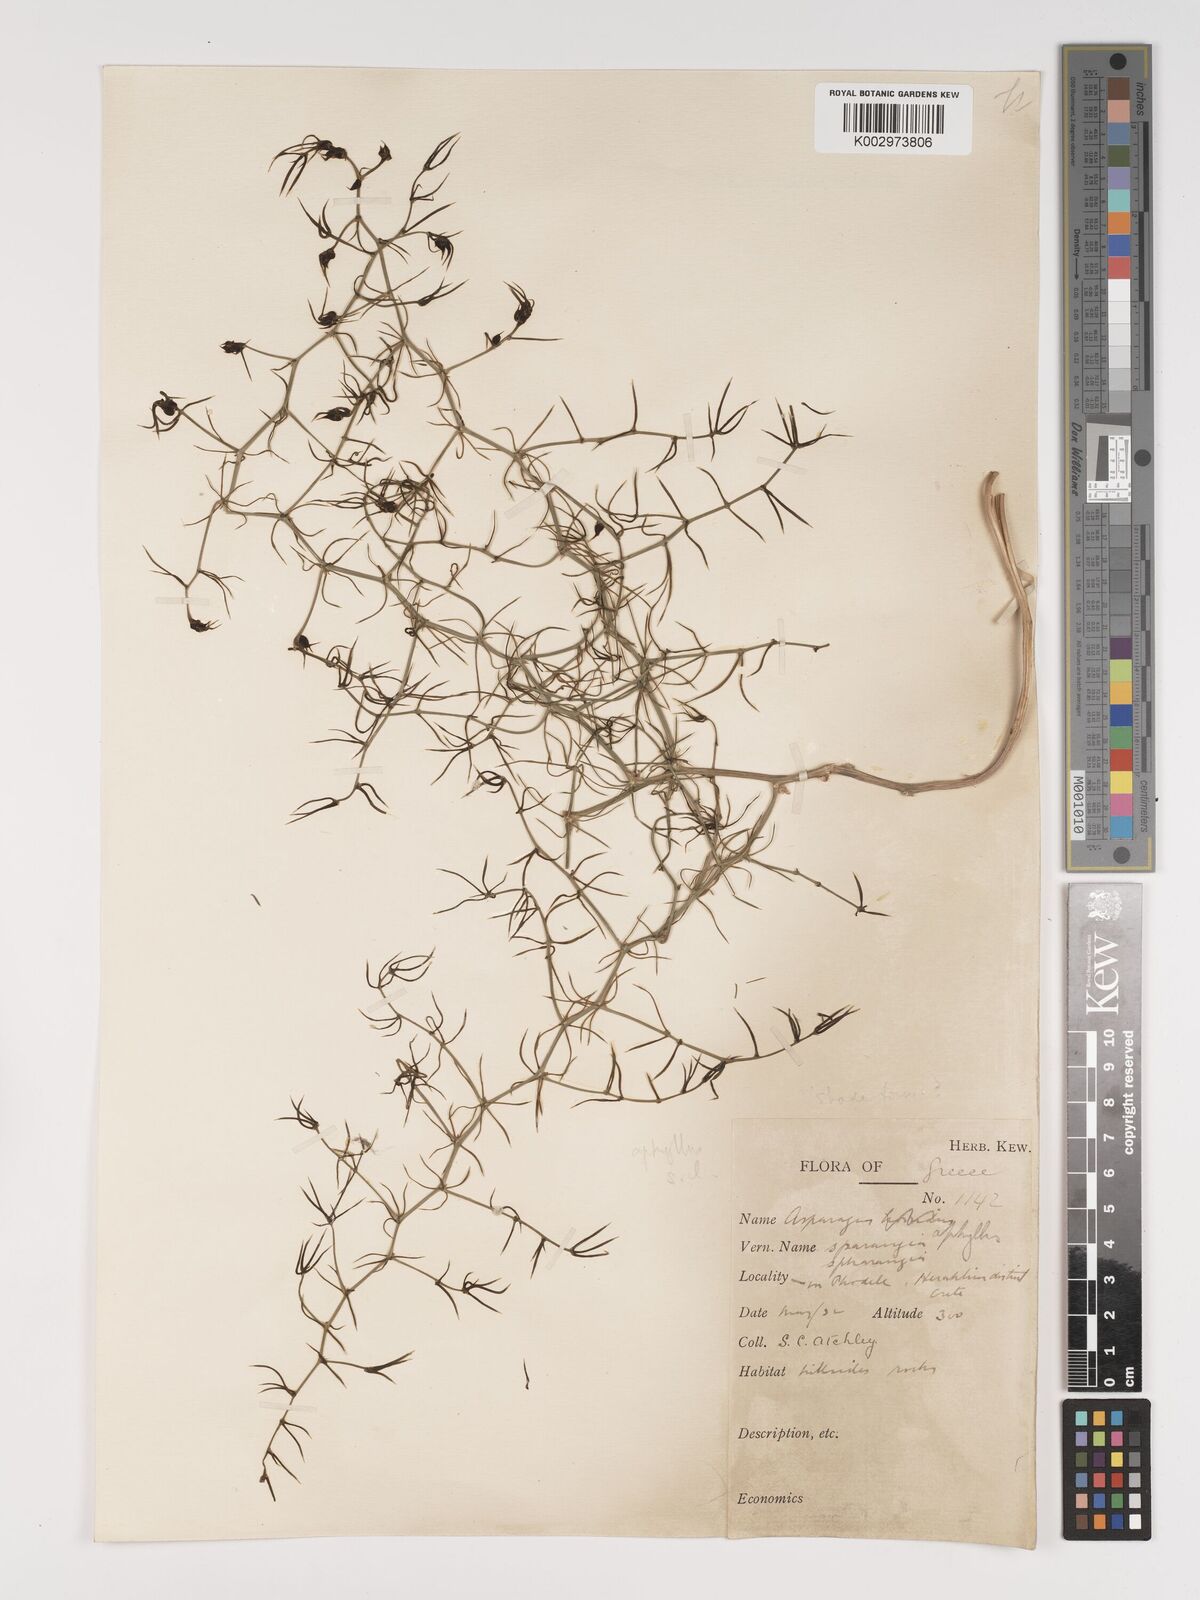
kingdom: Plantae
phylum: Tracheophyta
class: Liliopsida
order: Asparagales
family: Asparagaceae
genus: Asparagus
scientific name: Asparagus aphyllus
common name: Mediterranean asparagus
